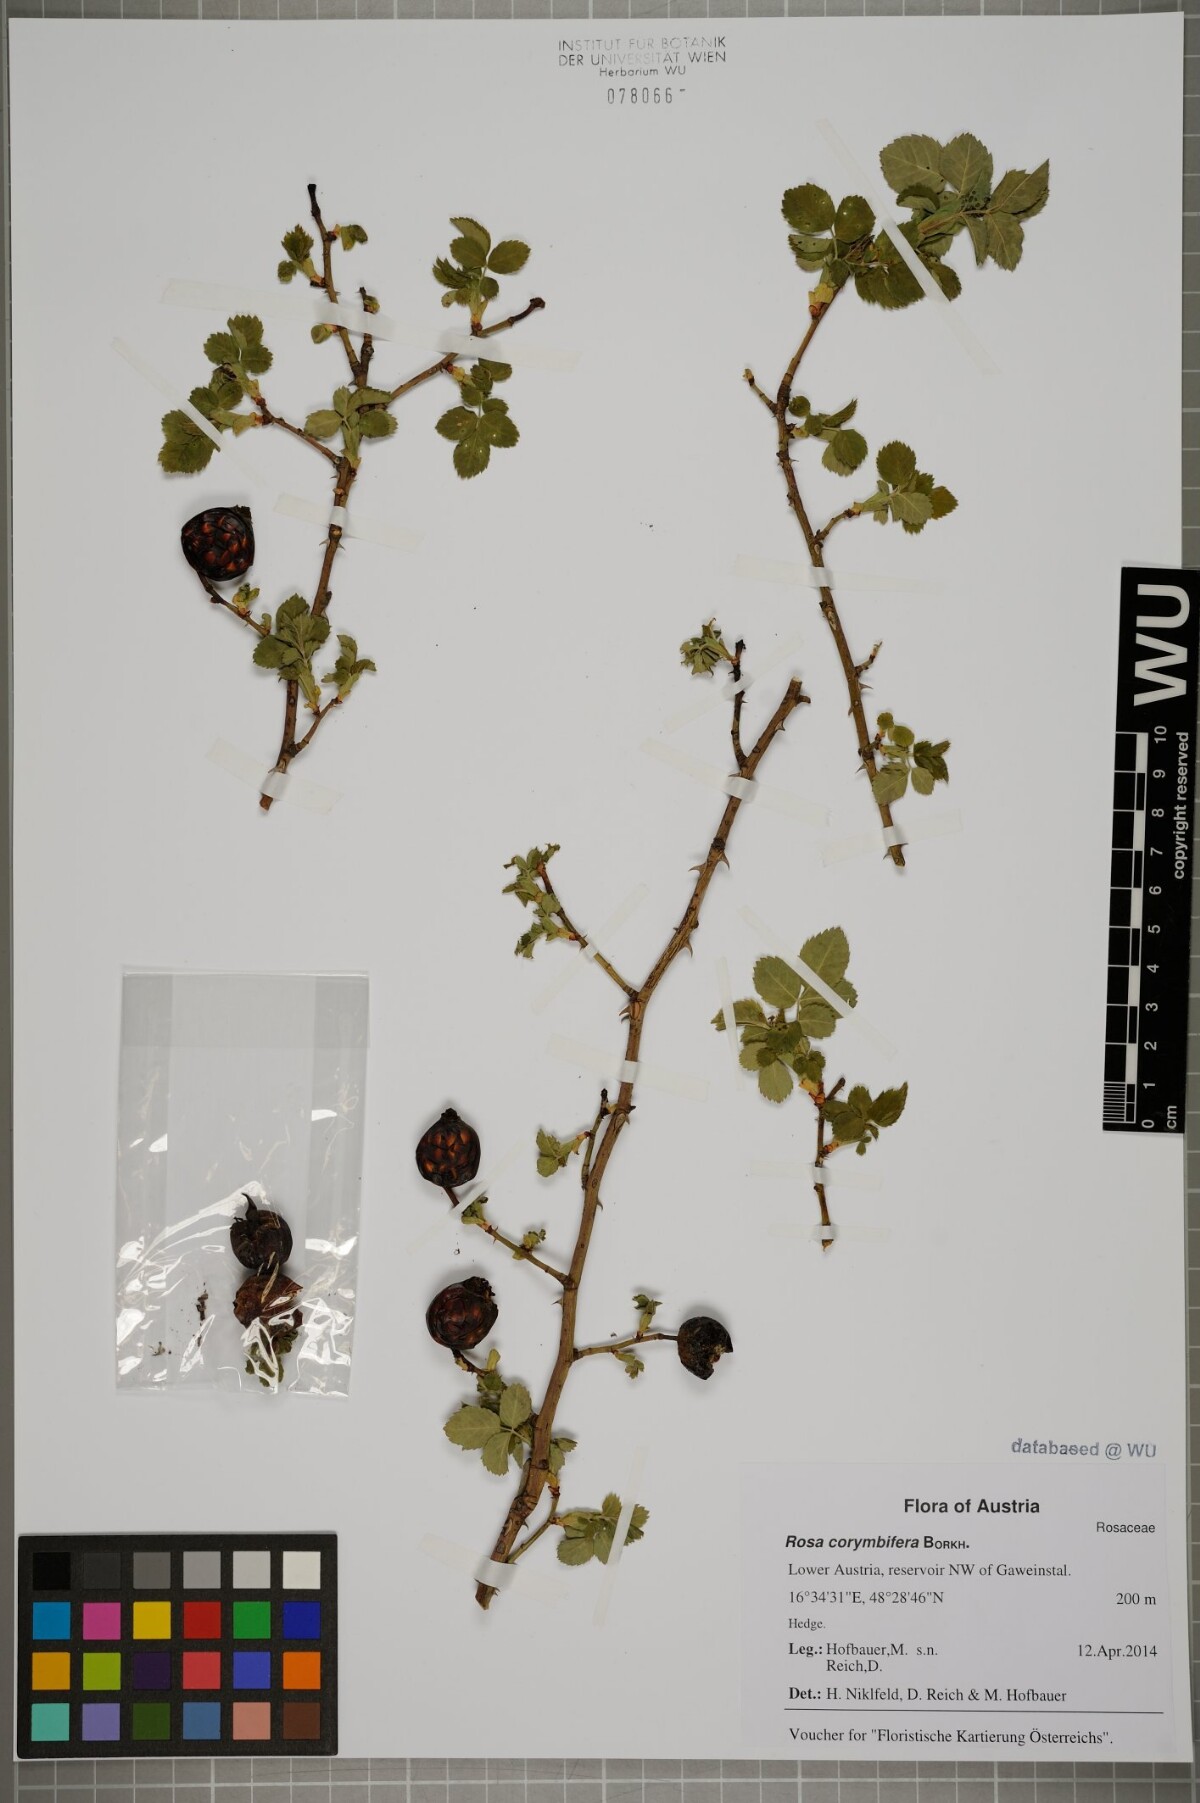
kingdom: Plantae
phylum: Tracheophyta
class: Magnoliopsida
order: Rosales
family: Rosaceae
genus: Rosa
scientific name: Rosa corymbifera
